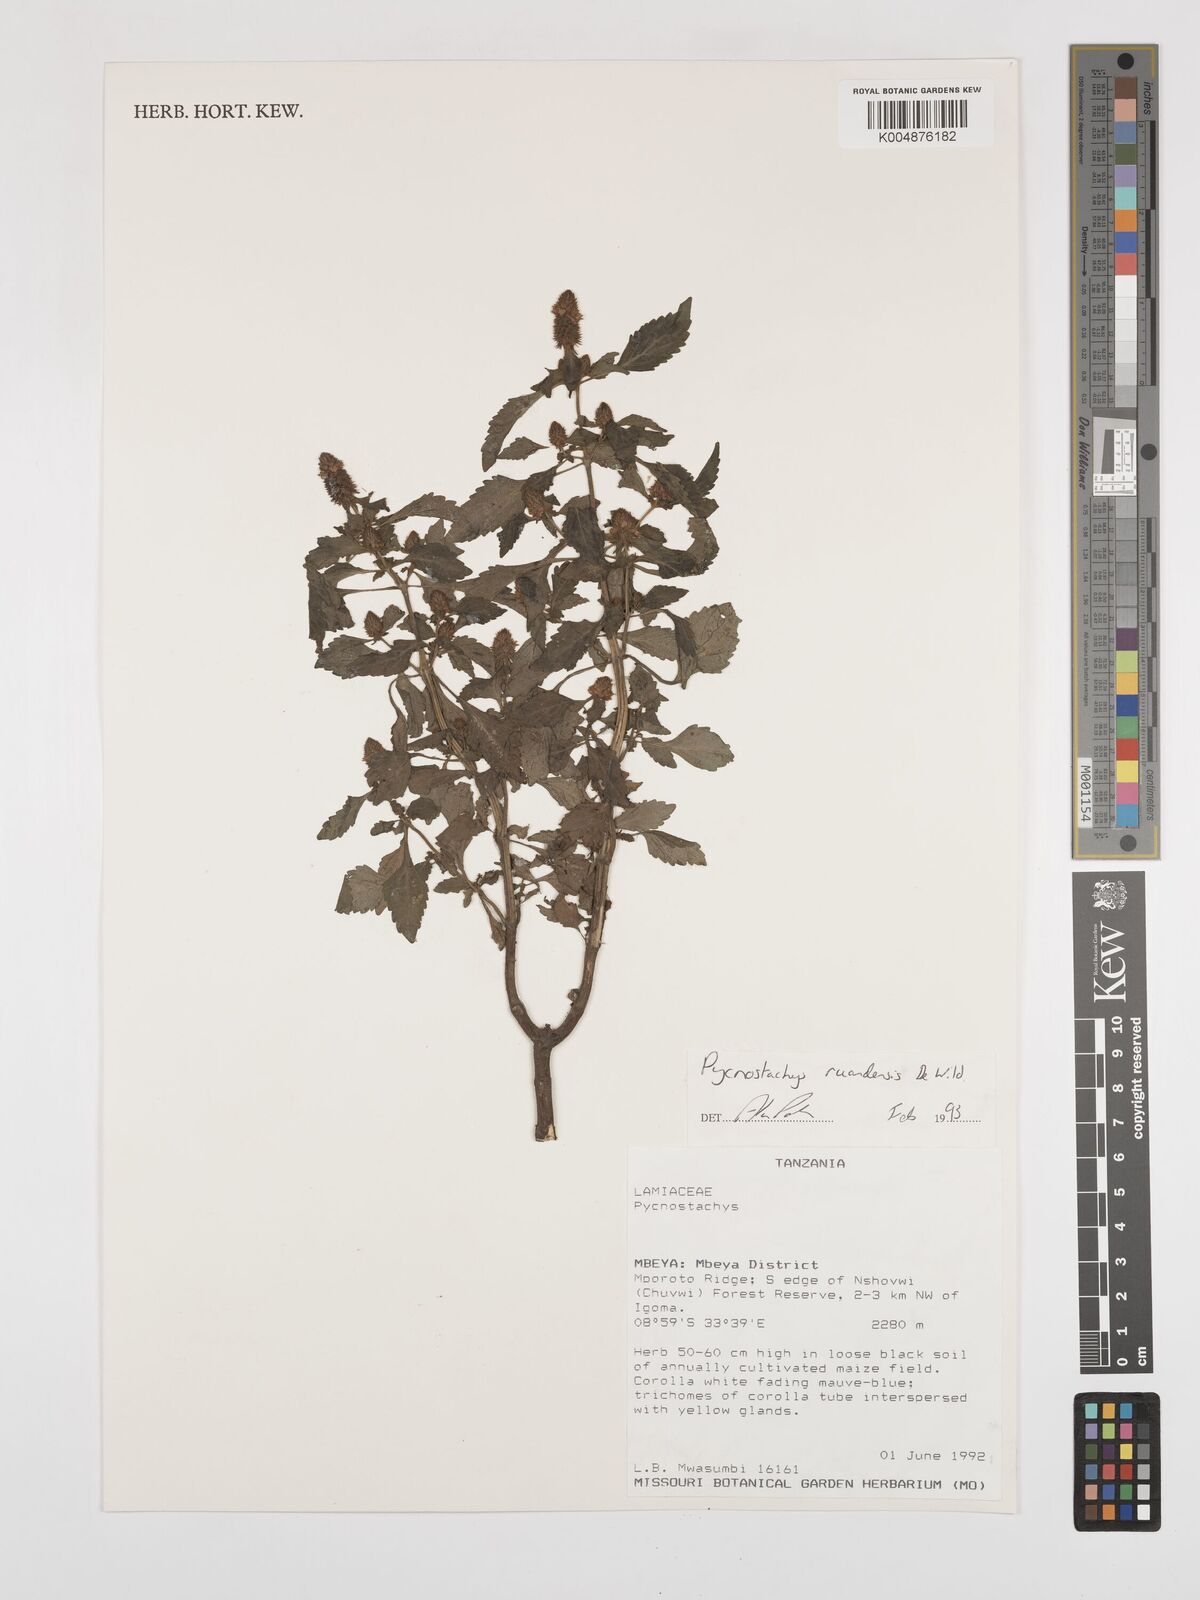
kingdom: Plantae
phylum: Tracheophyta
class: Magnoliopsida
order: Lamiales
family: Lamiaceae
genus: Coleus
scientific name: Coleus ruandensis
